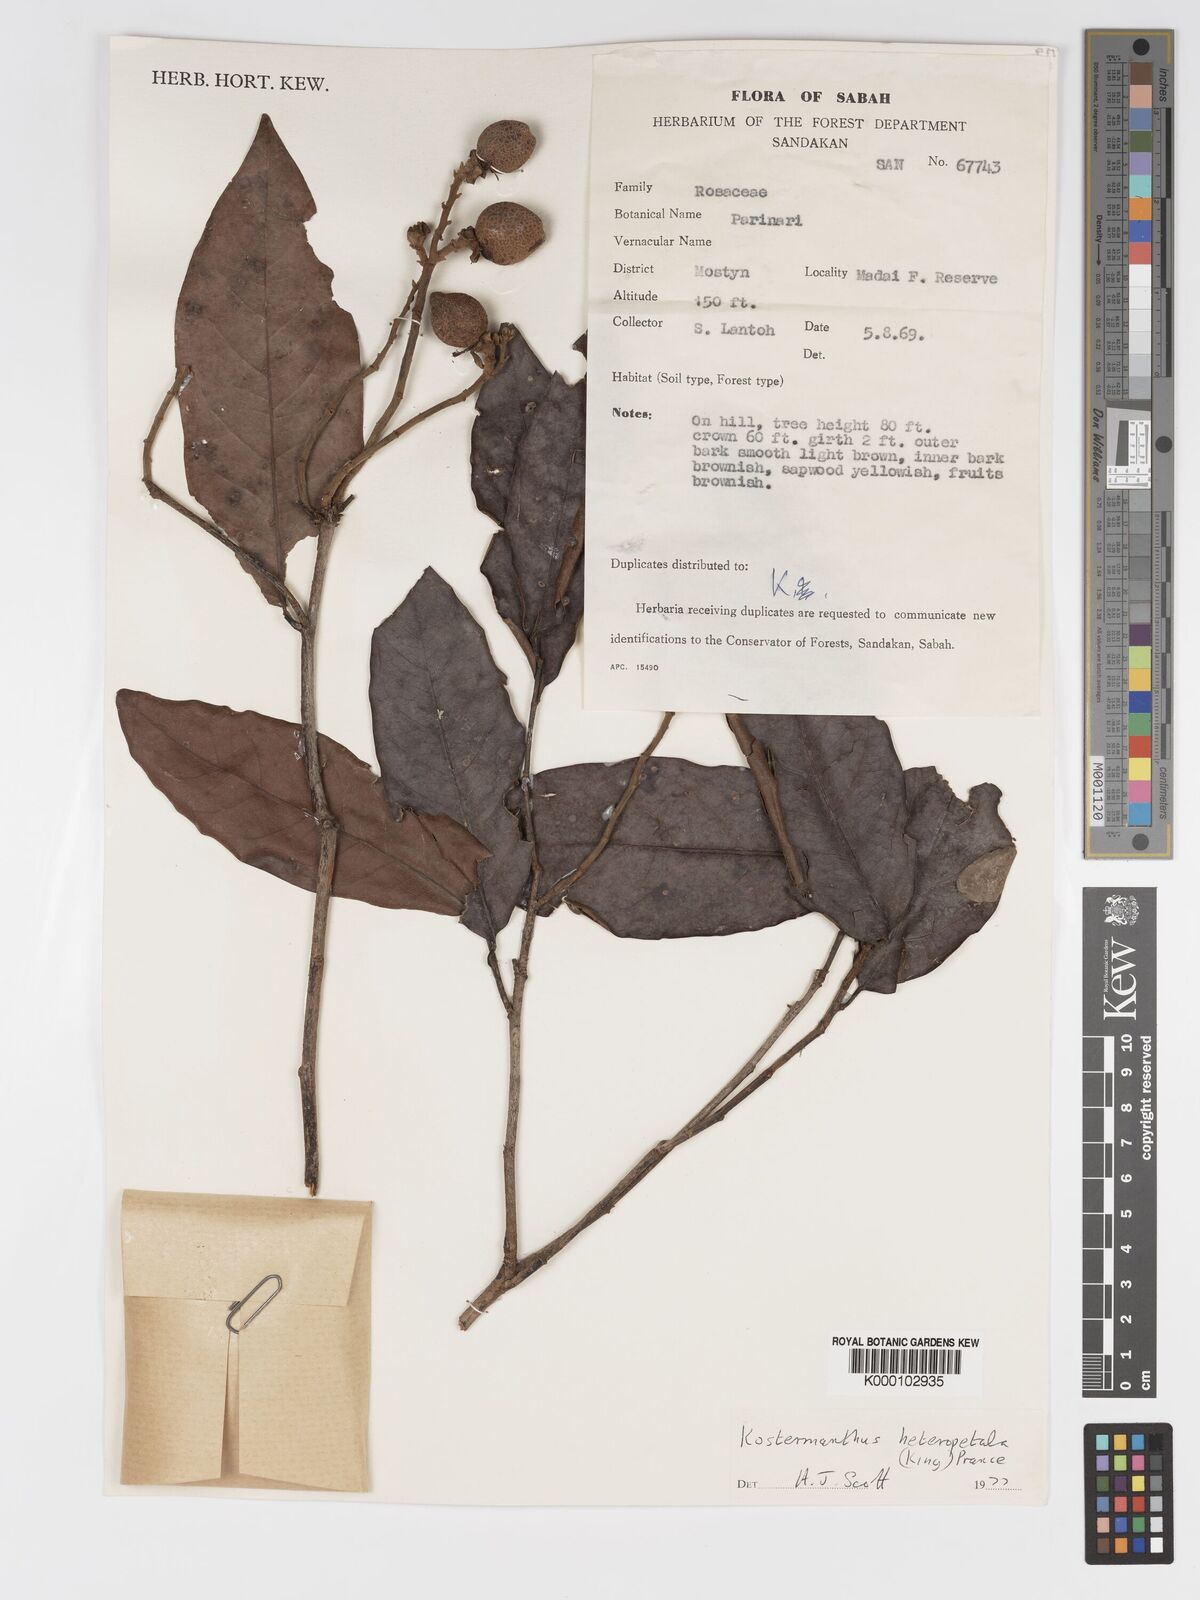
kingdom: Plantae
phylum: Tracheophyta
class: Magnoliopsida
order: Malpighiales
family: Chrysobalanaceae
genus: Kostermanthus
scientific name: Kostermanthus heteropetalus
